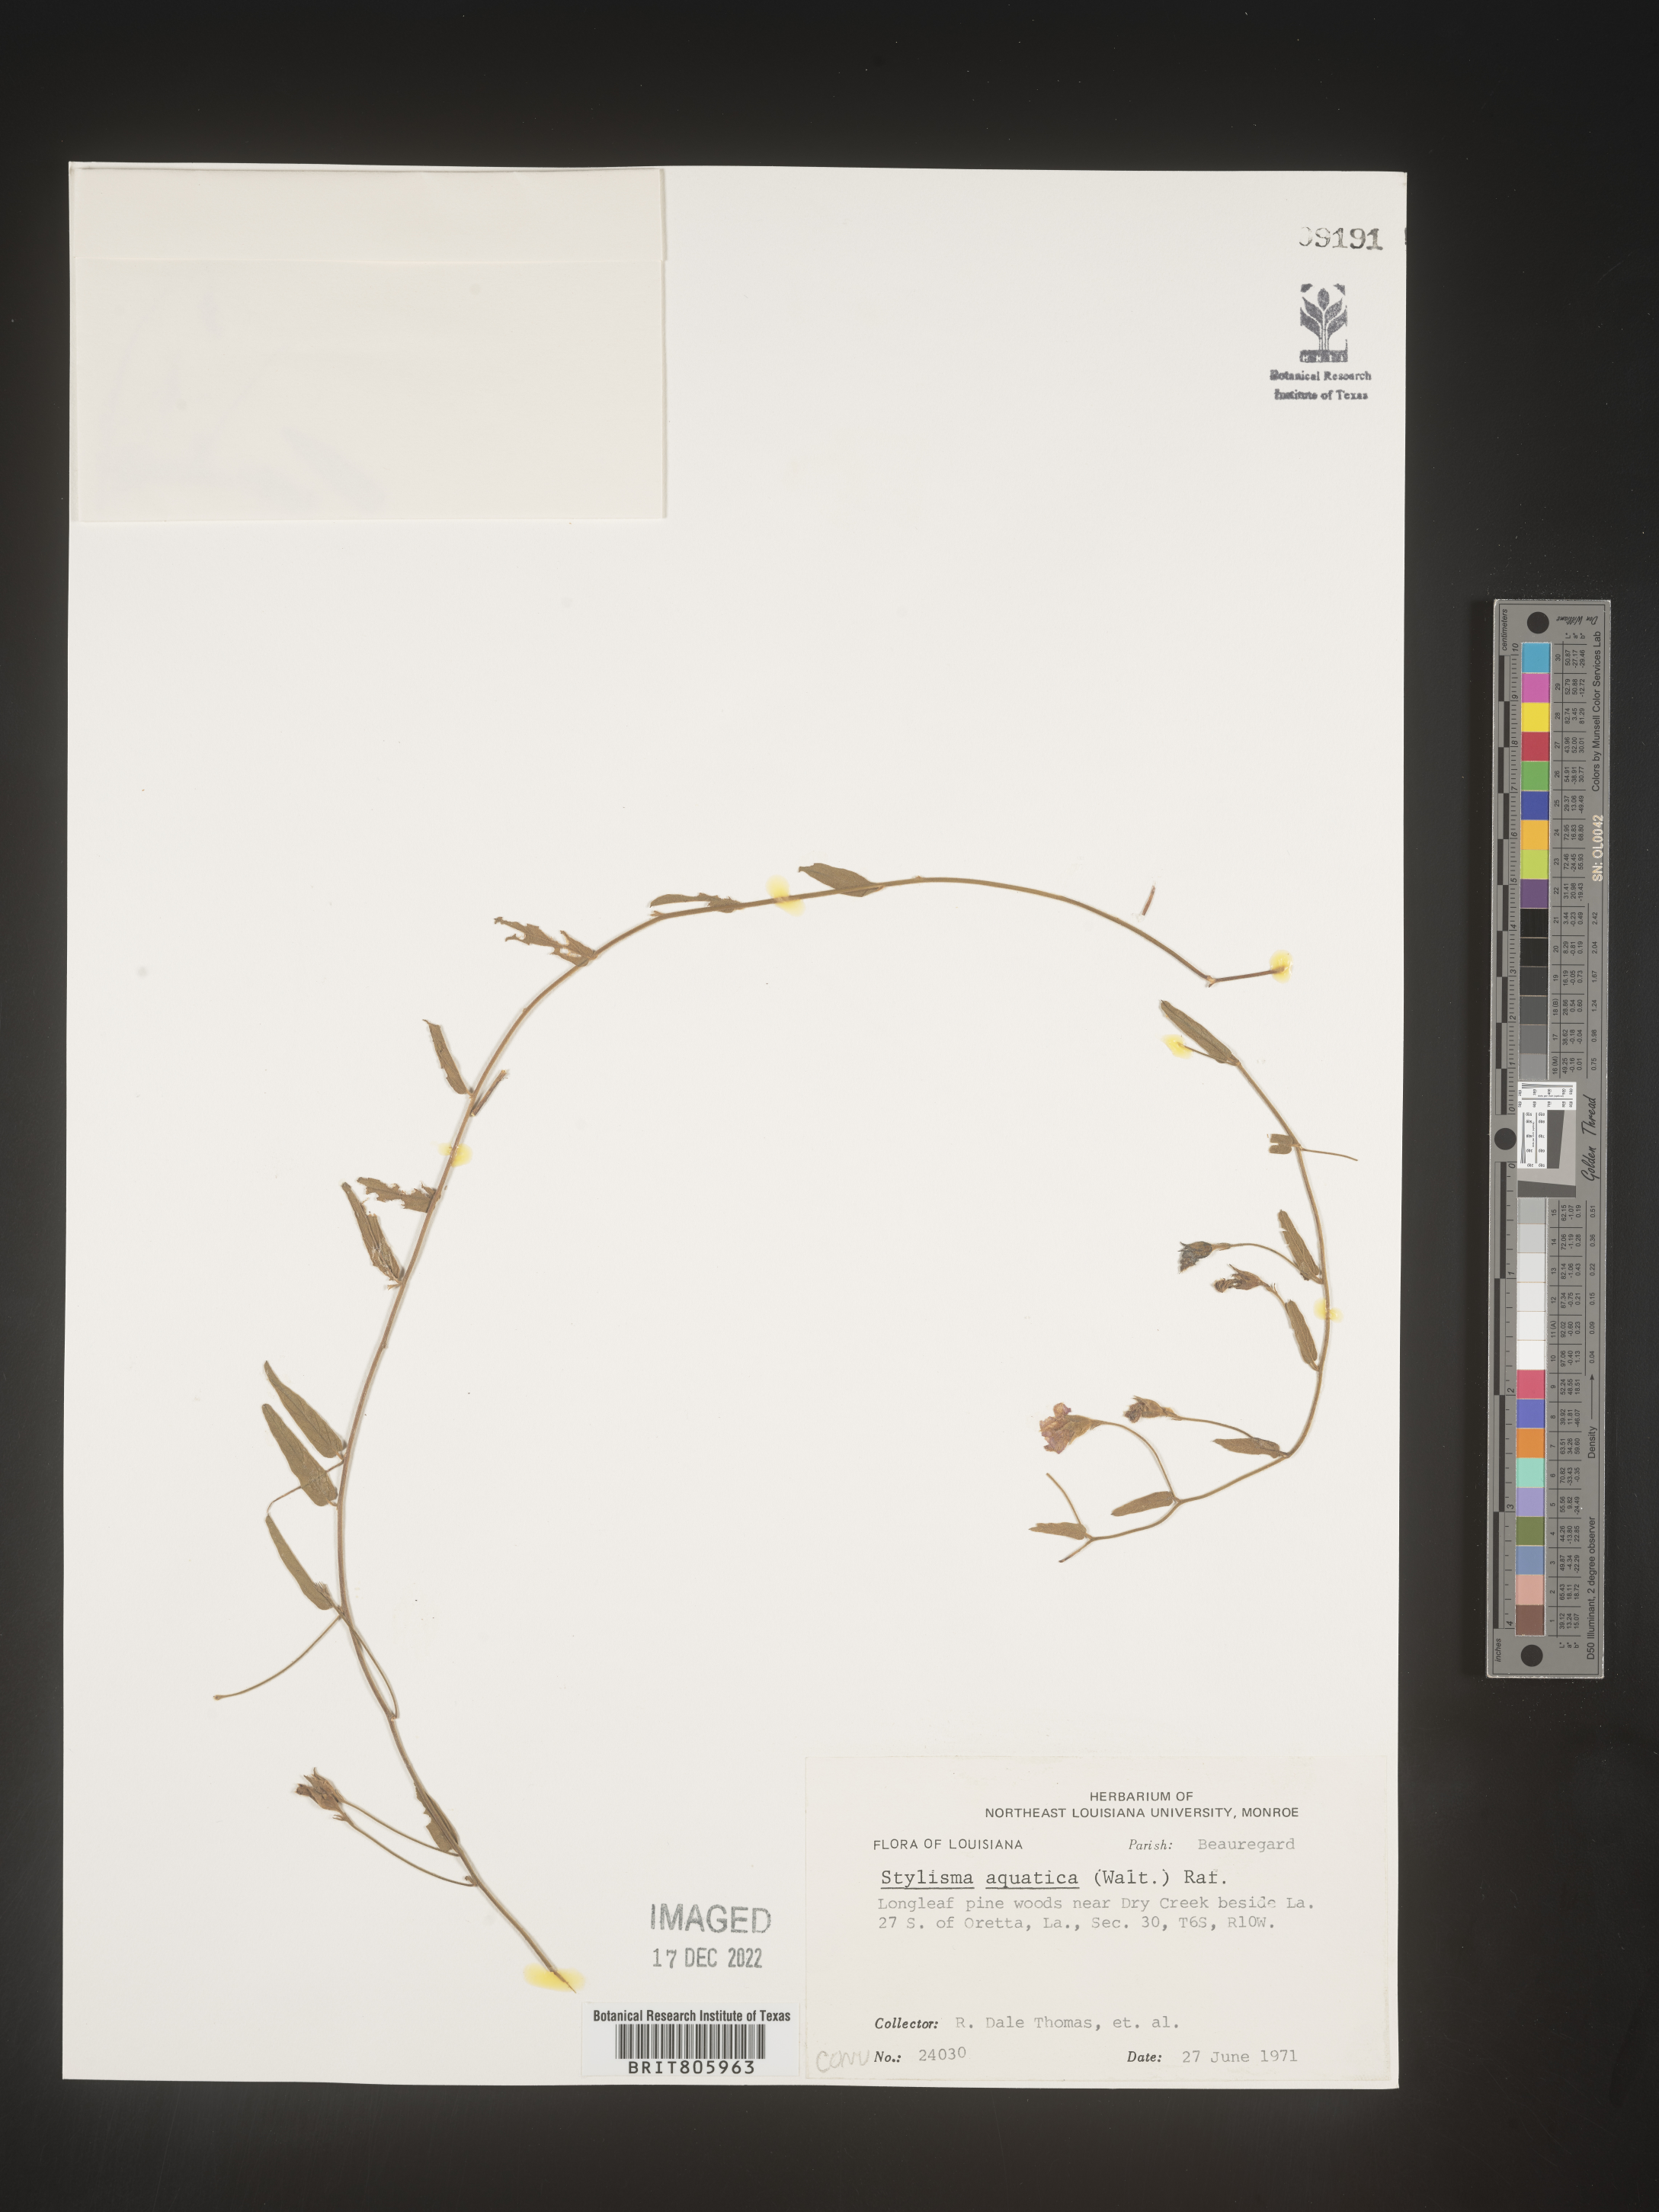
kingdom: Plantae
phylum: Tracheophyta
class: Magnoliopsida
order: Solanales
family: Convolvulaceae
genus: Stylisma
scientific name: Stylisma
